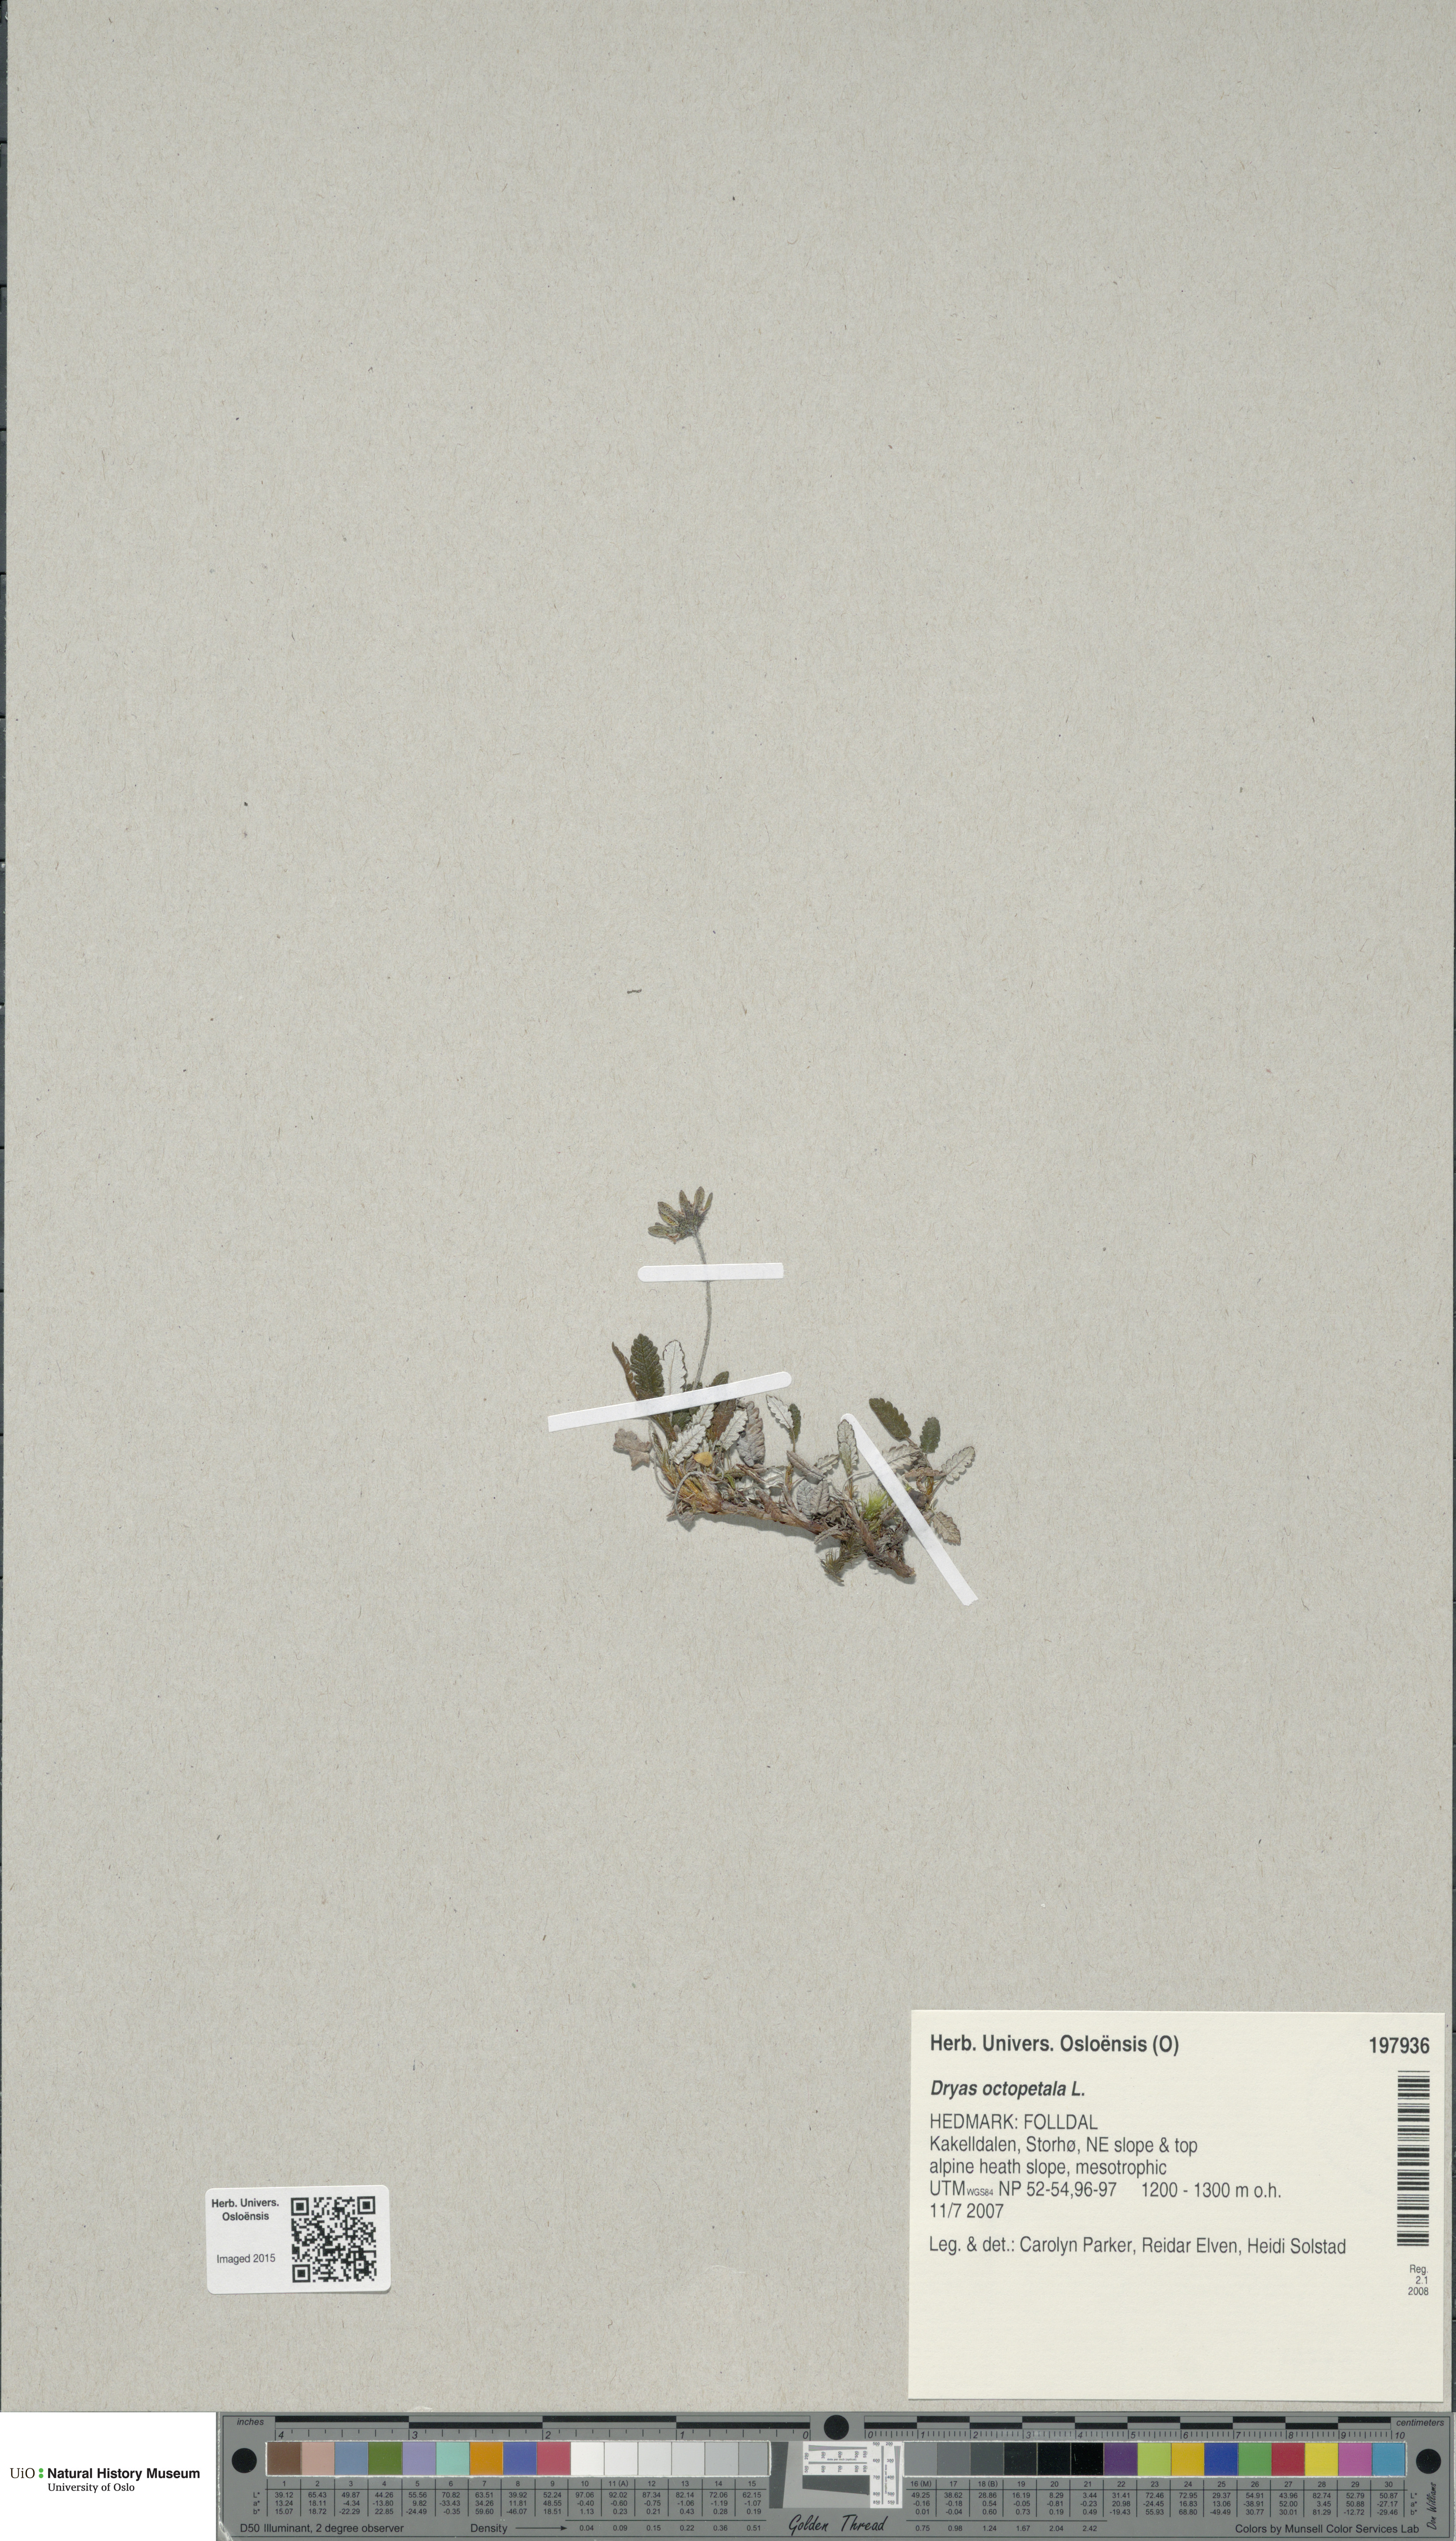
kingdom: Plantae
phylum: Tracheophyta
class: Magnoliopsida
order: Rosales
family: Rosaceae
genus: Dryas
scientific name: Dryas octopetala
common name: Eight-petal mountain-avens
